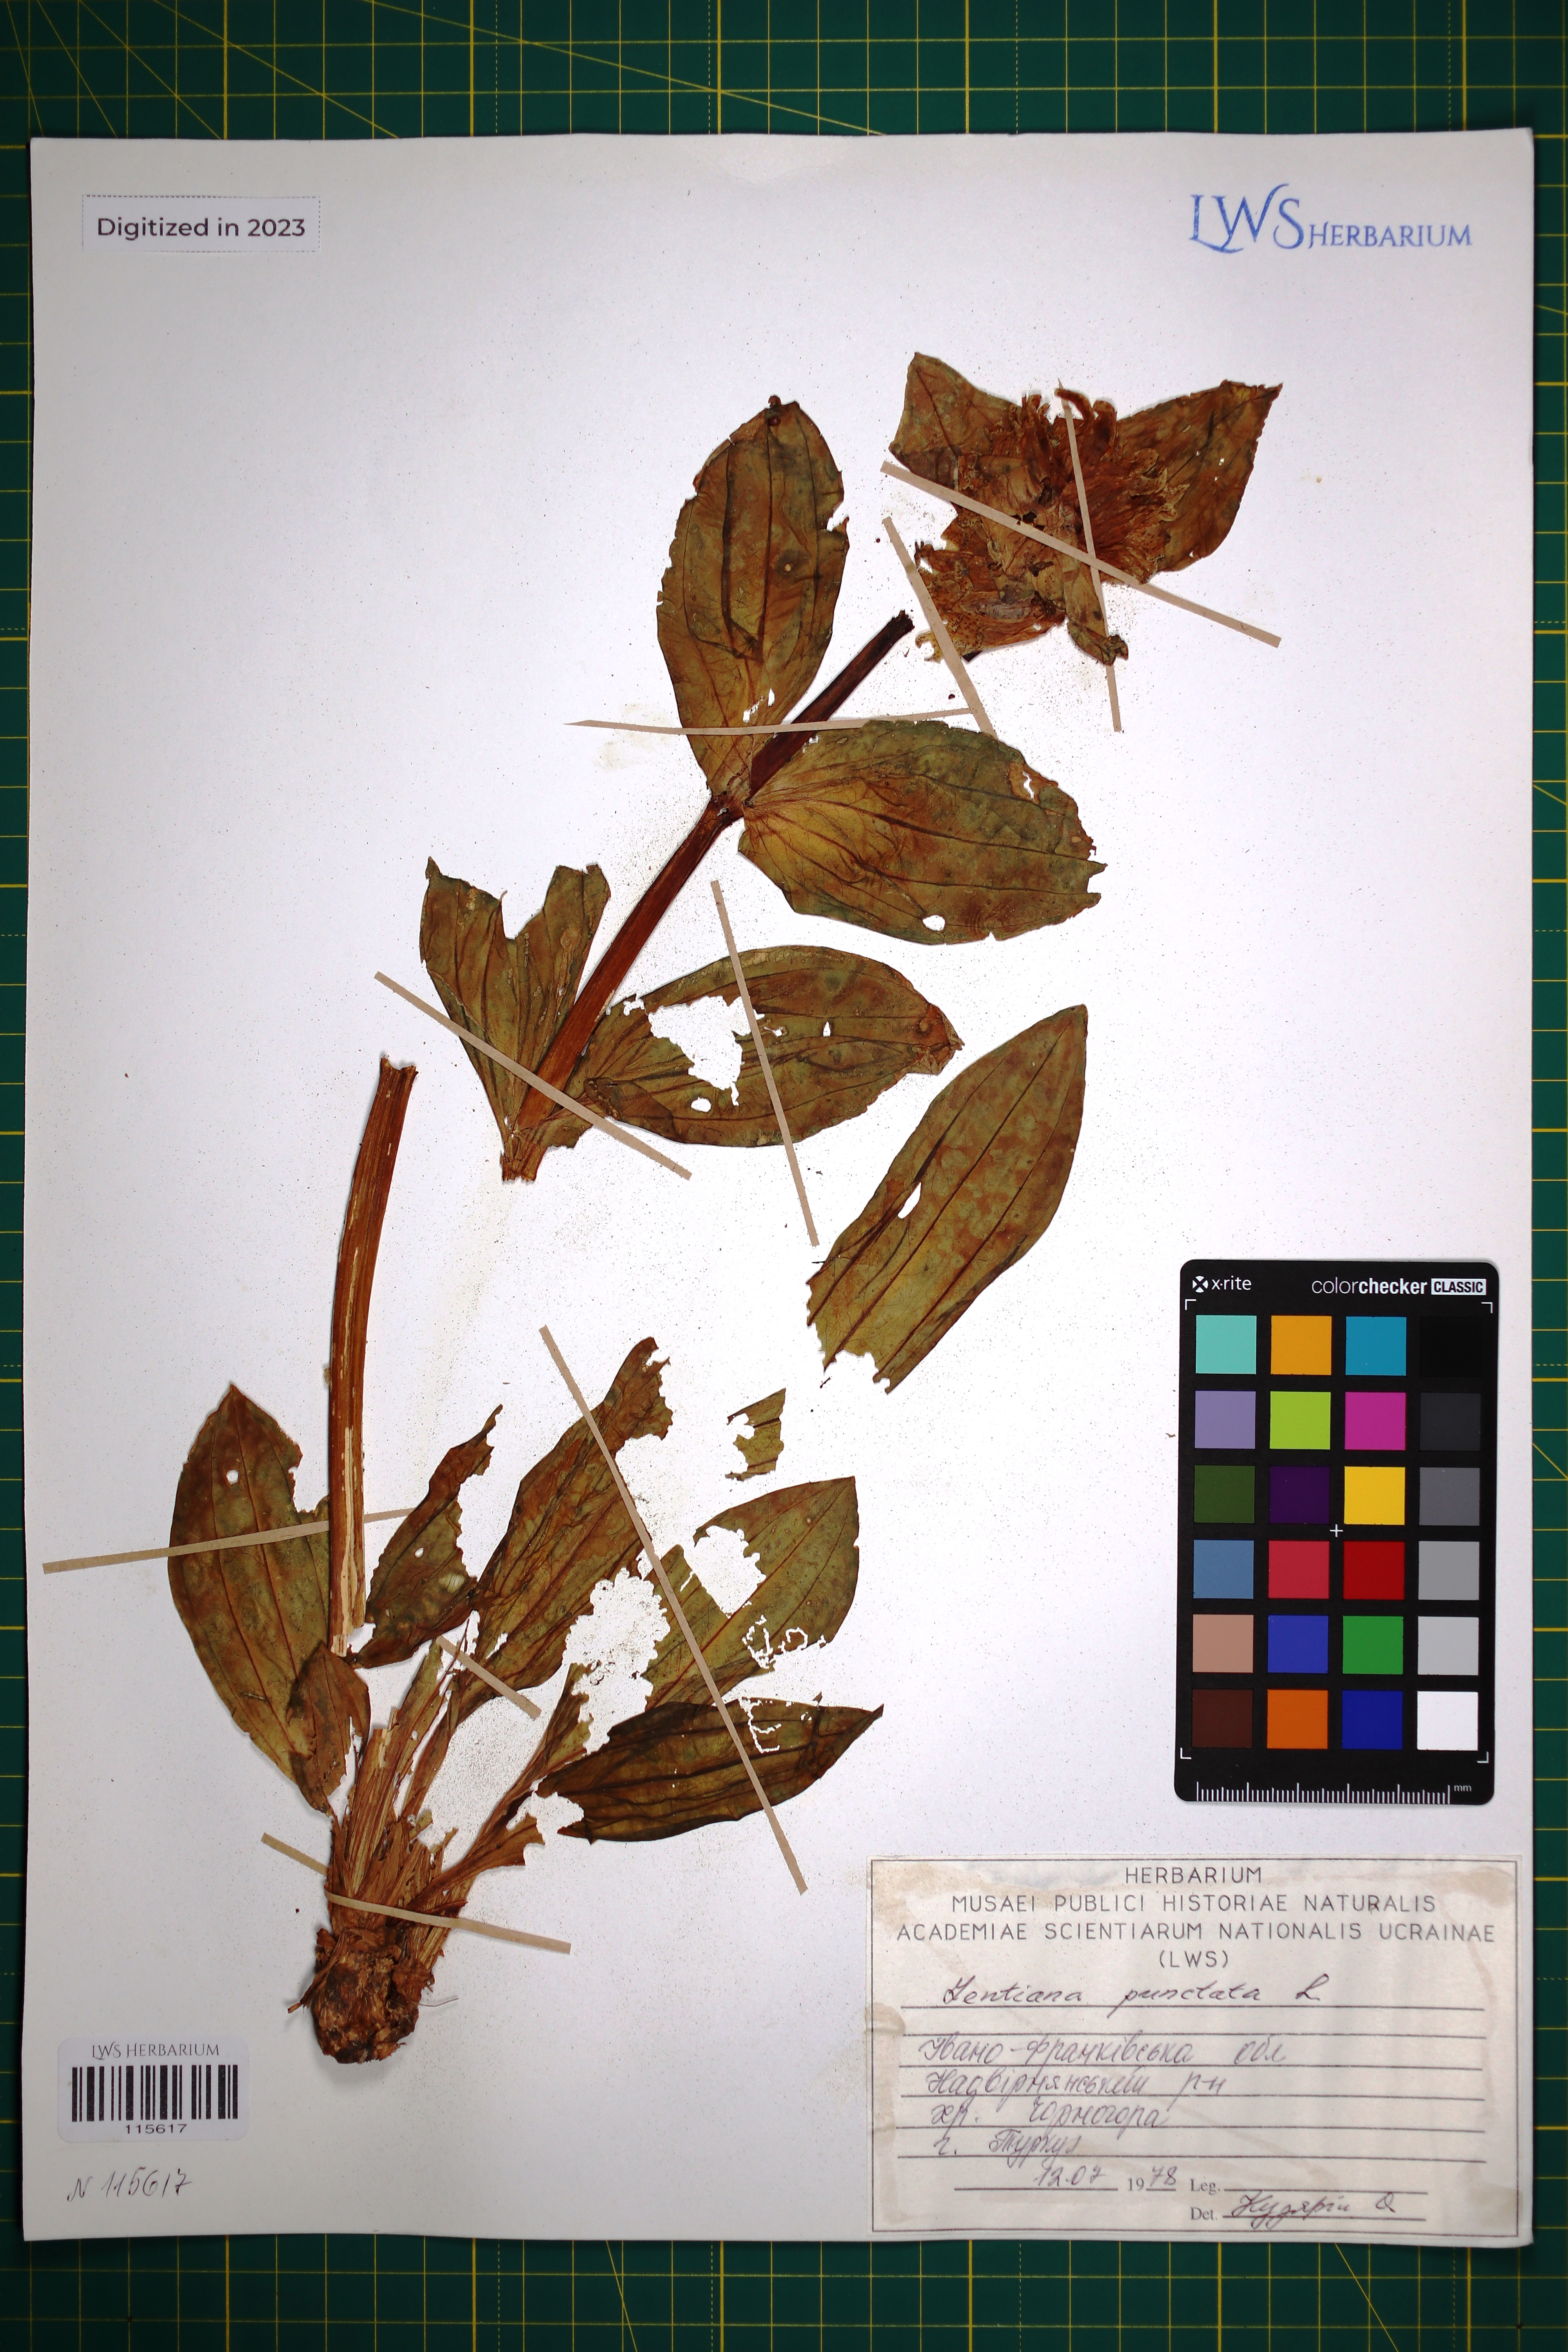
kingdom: Plantae
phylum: Tracheophyta
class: Magnoliopsida
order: Gentianales
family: Gentianaceae
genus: Gentiana
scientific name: Gentiana punctata
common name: Spotted gentian
